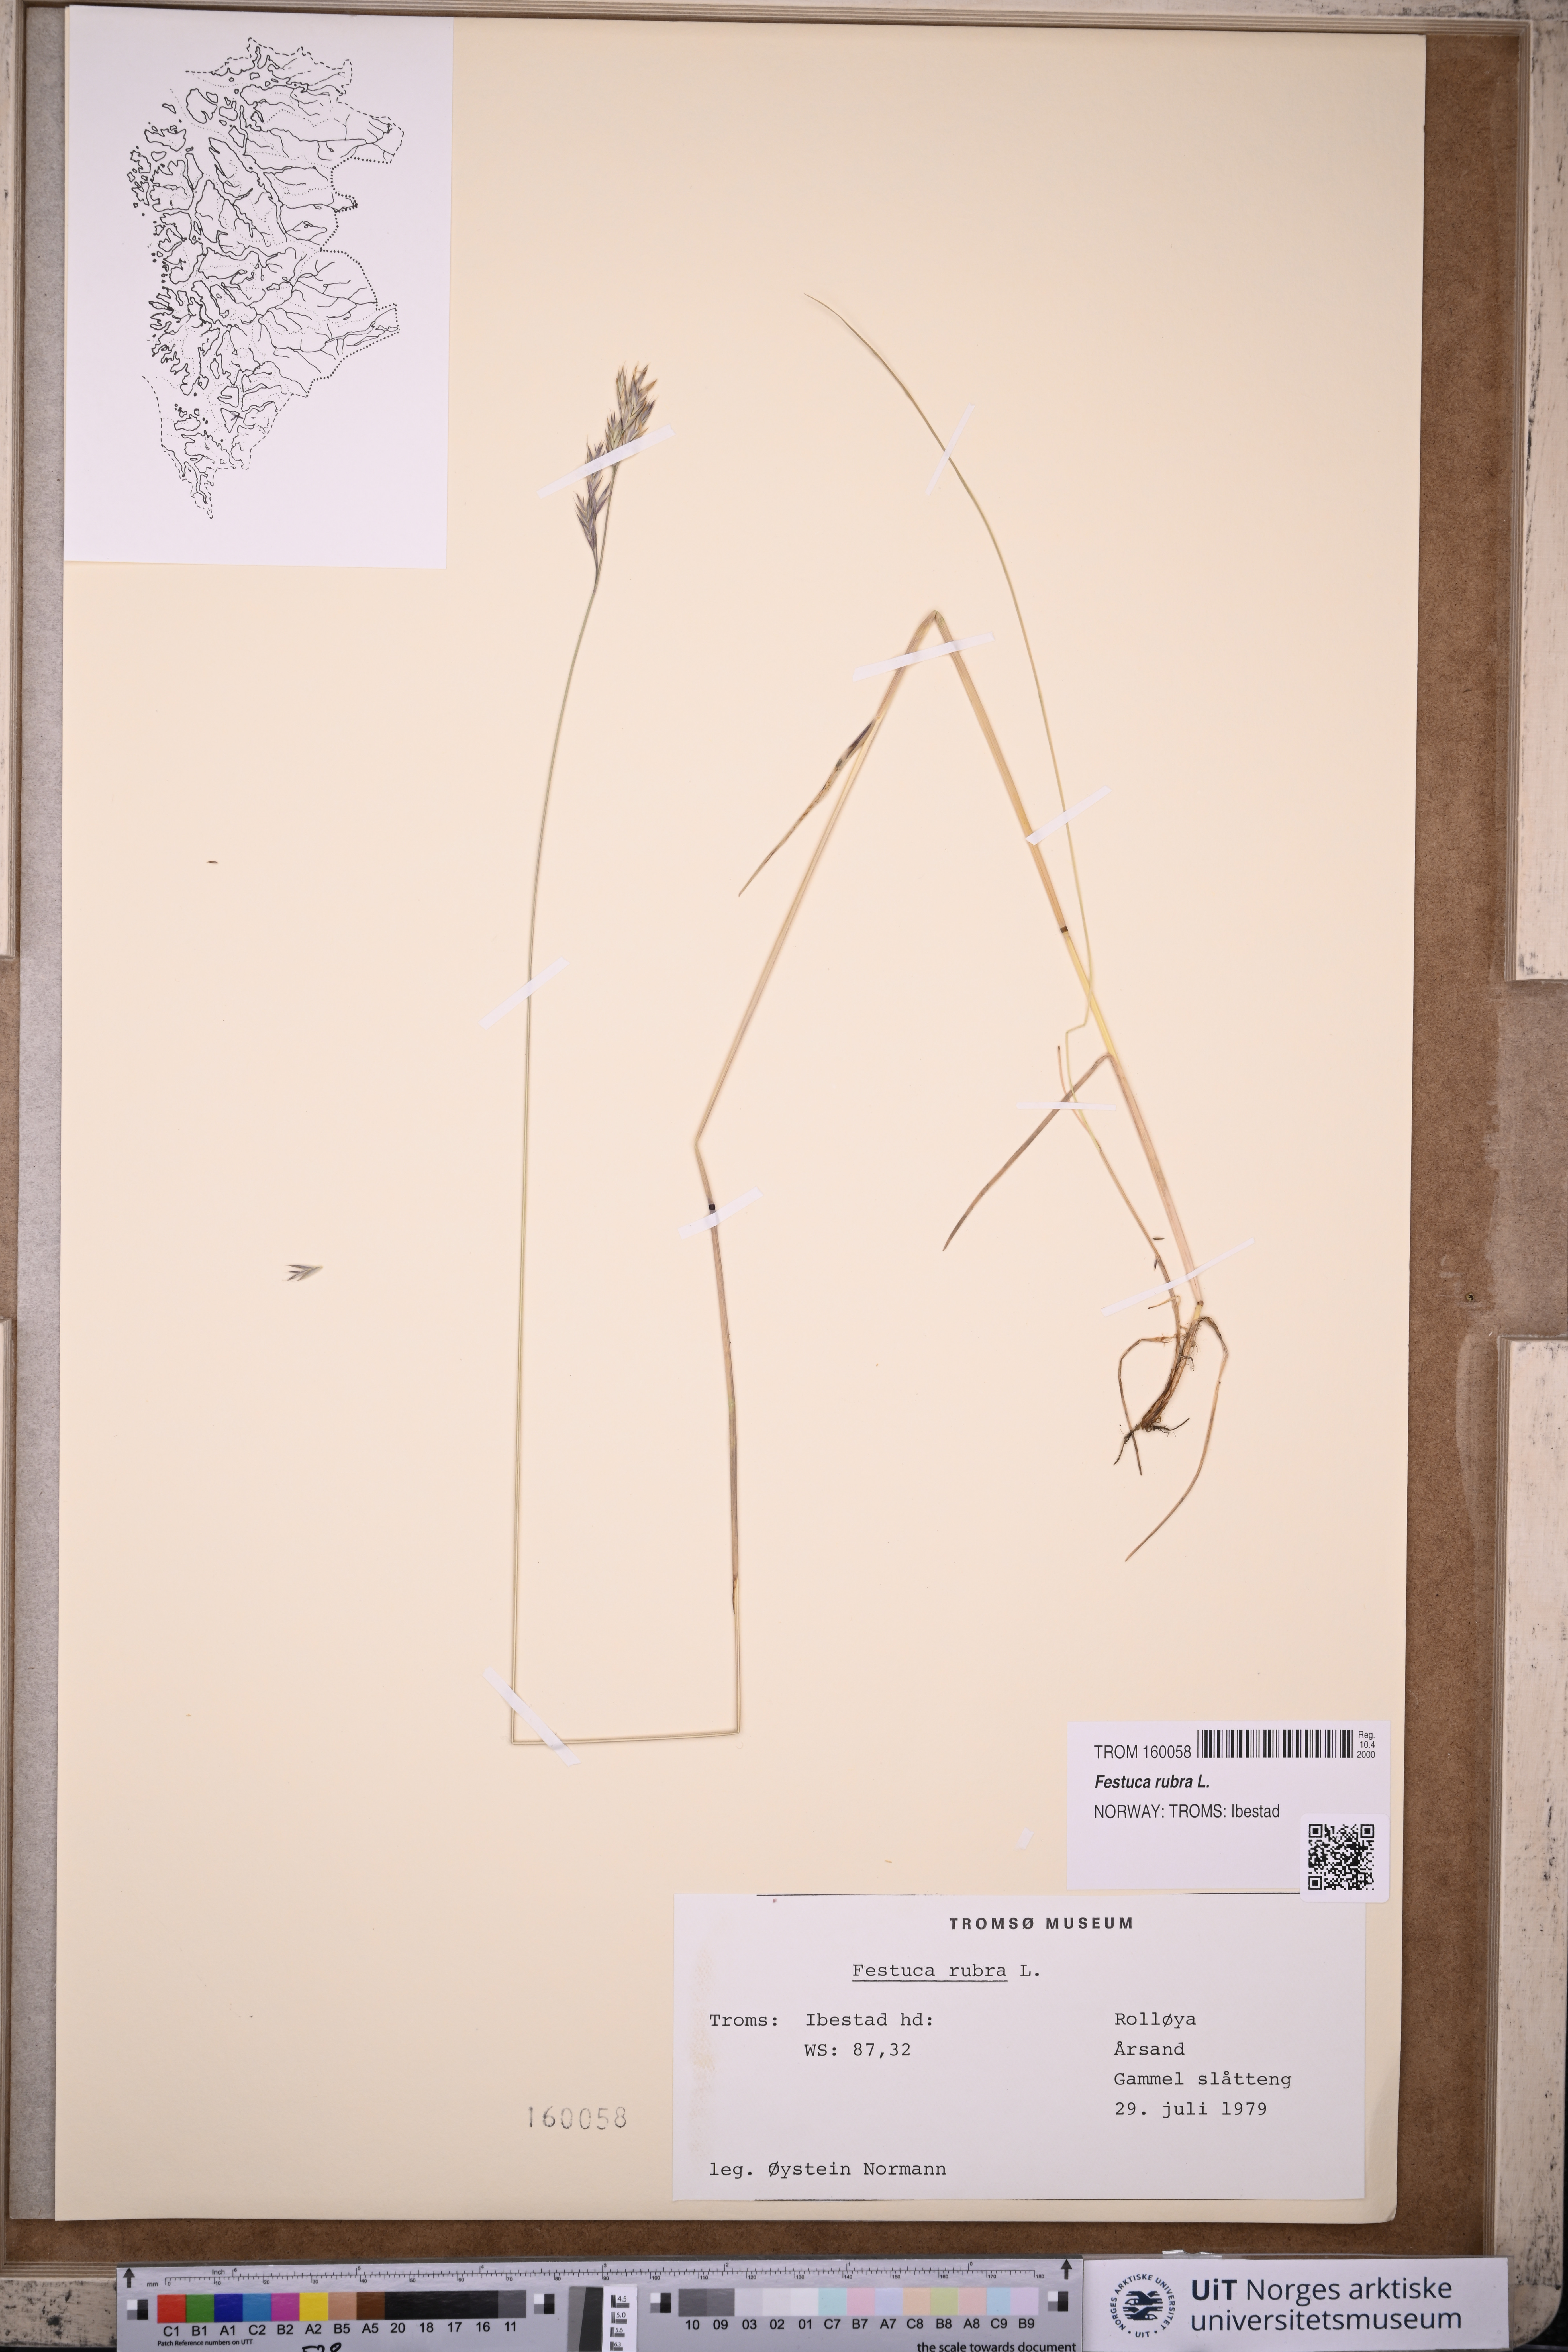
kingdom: Plantae
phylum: Tracheophyta
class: Liliopsida
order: Poales
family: Poaceae
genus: Festuca
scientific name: Festuca rubra
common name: Red fescue
